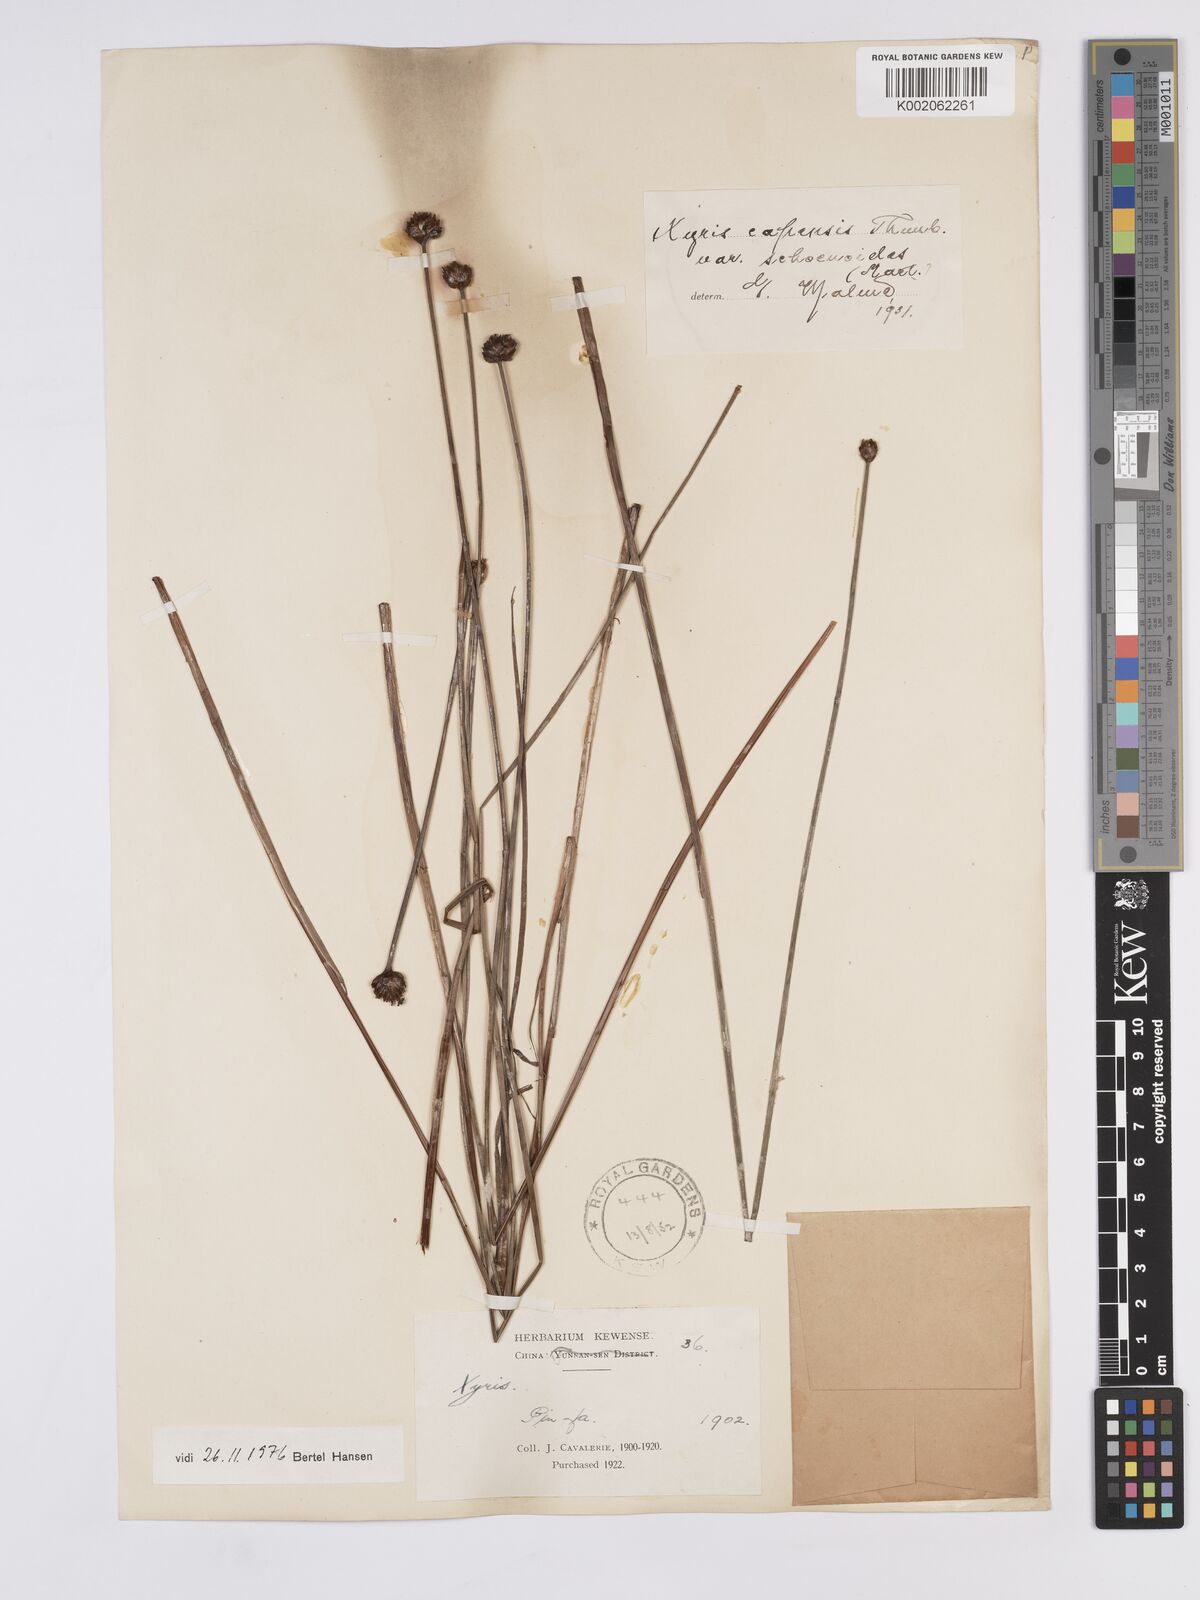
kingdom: Plantae
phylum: Tracheophyta
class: Liliopsida
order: Poales
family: Xyridaceae
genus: Xyris
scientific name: Xyris capensis
